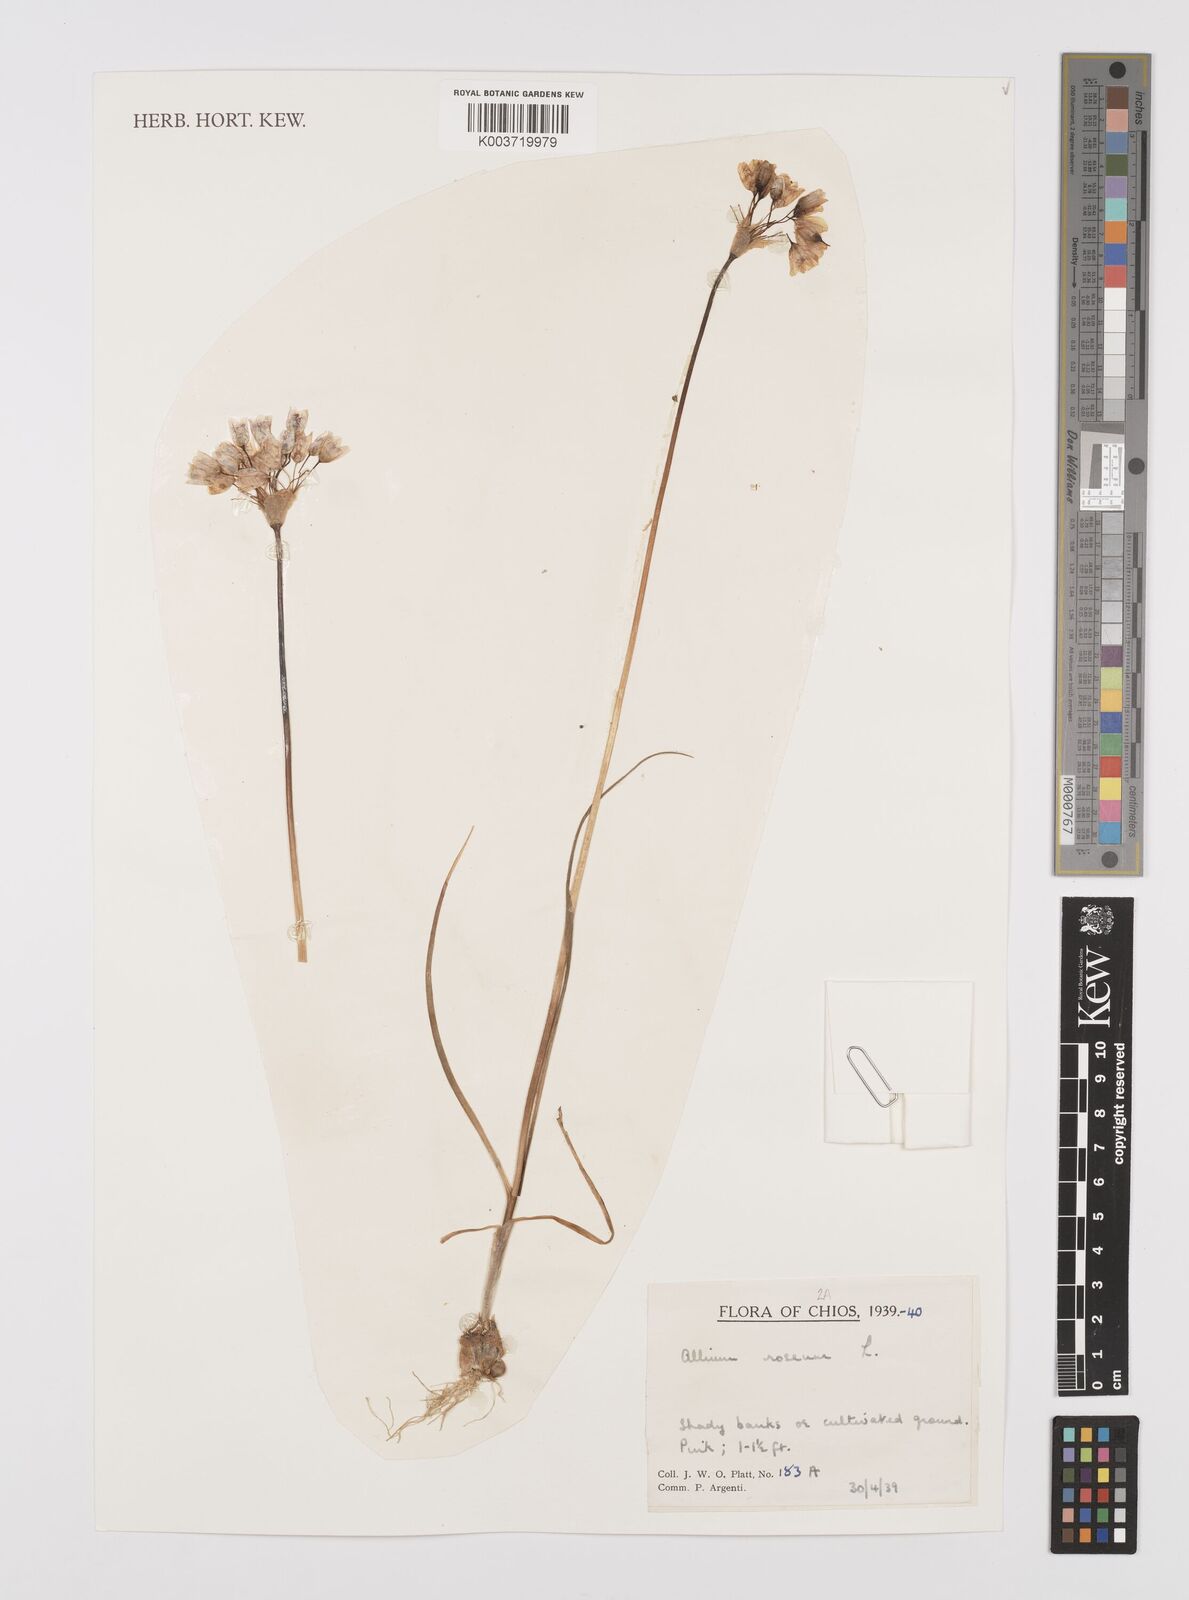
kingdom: Plantae
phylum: Tracheophyta
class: Liliopsida
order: Asparagales
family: Amaryllidaceae
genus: Allium
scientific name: Allium roseum
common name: Rosy garlic
